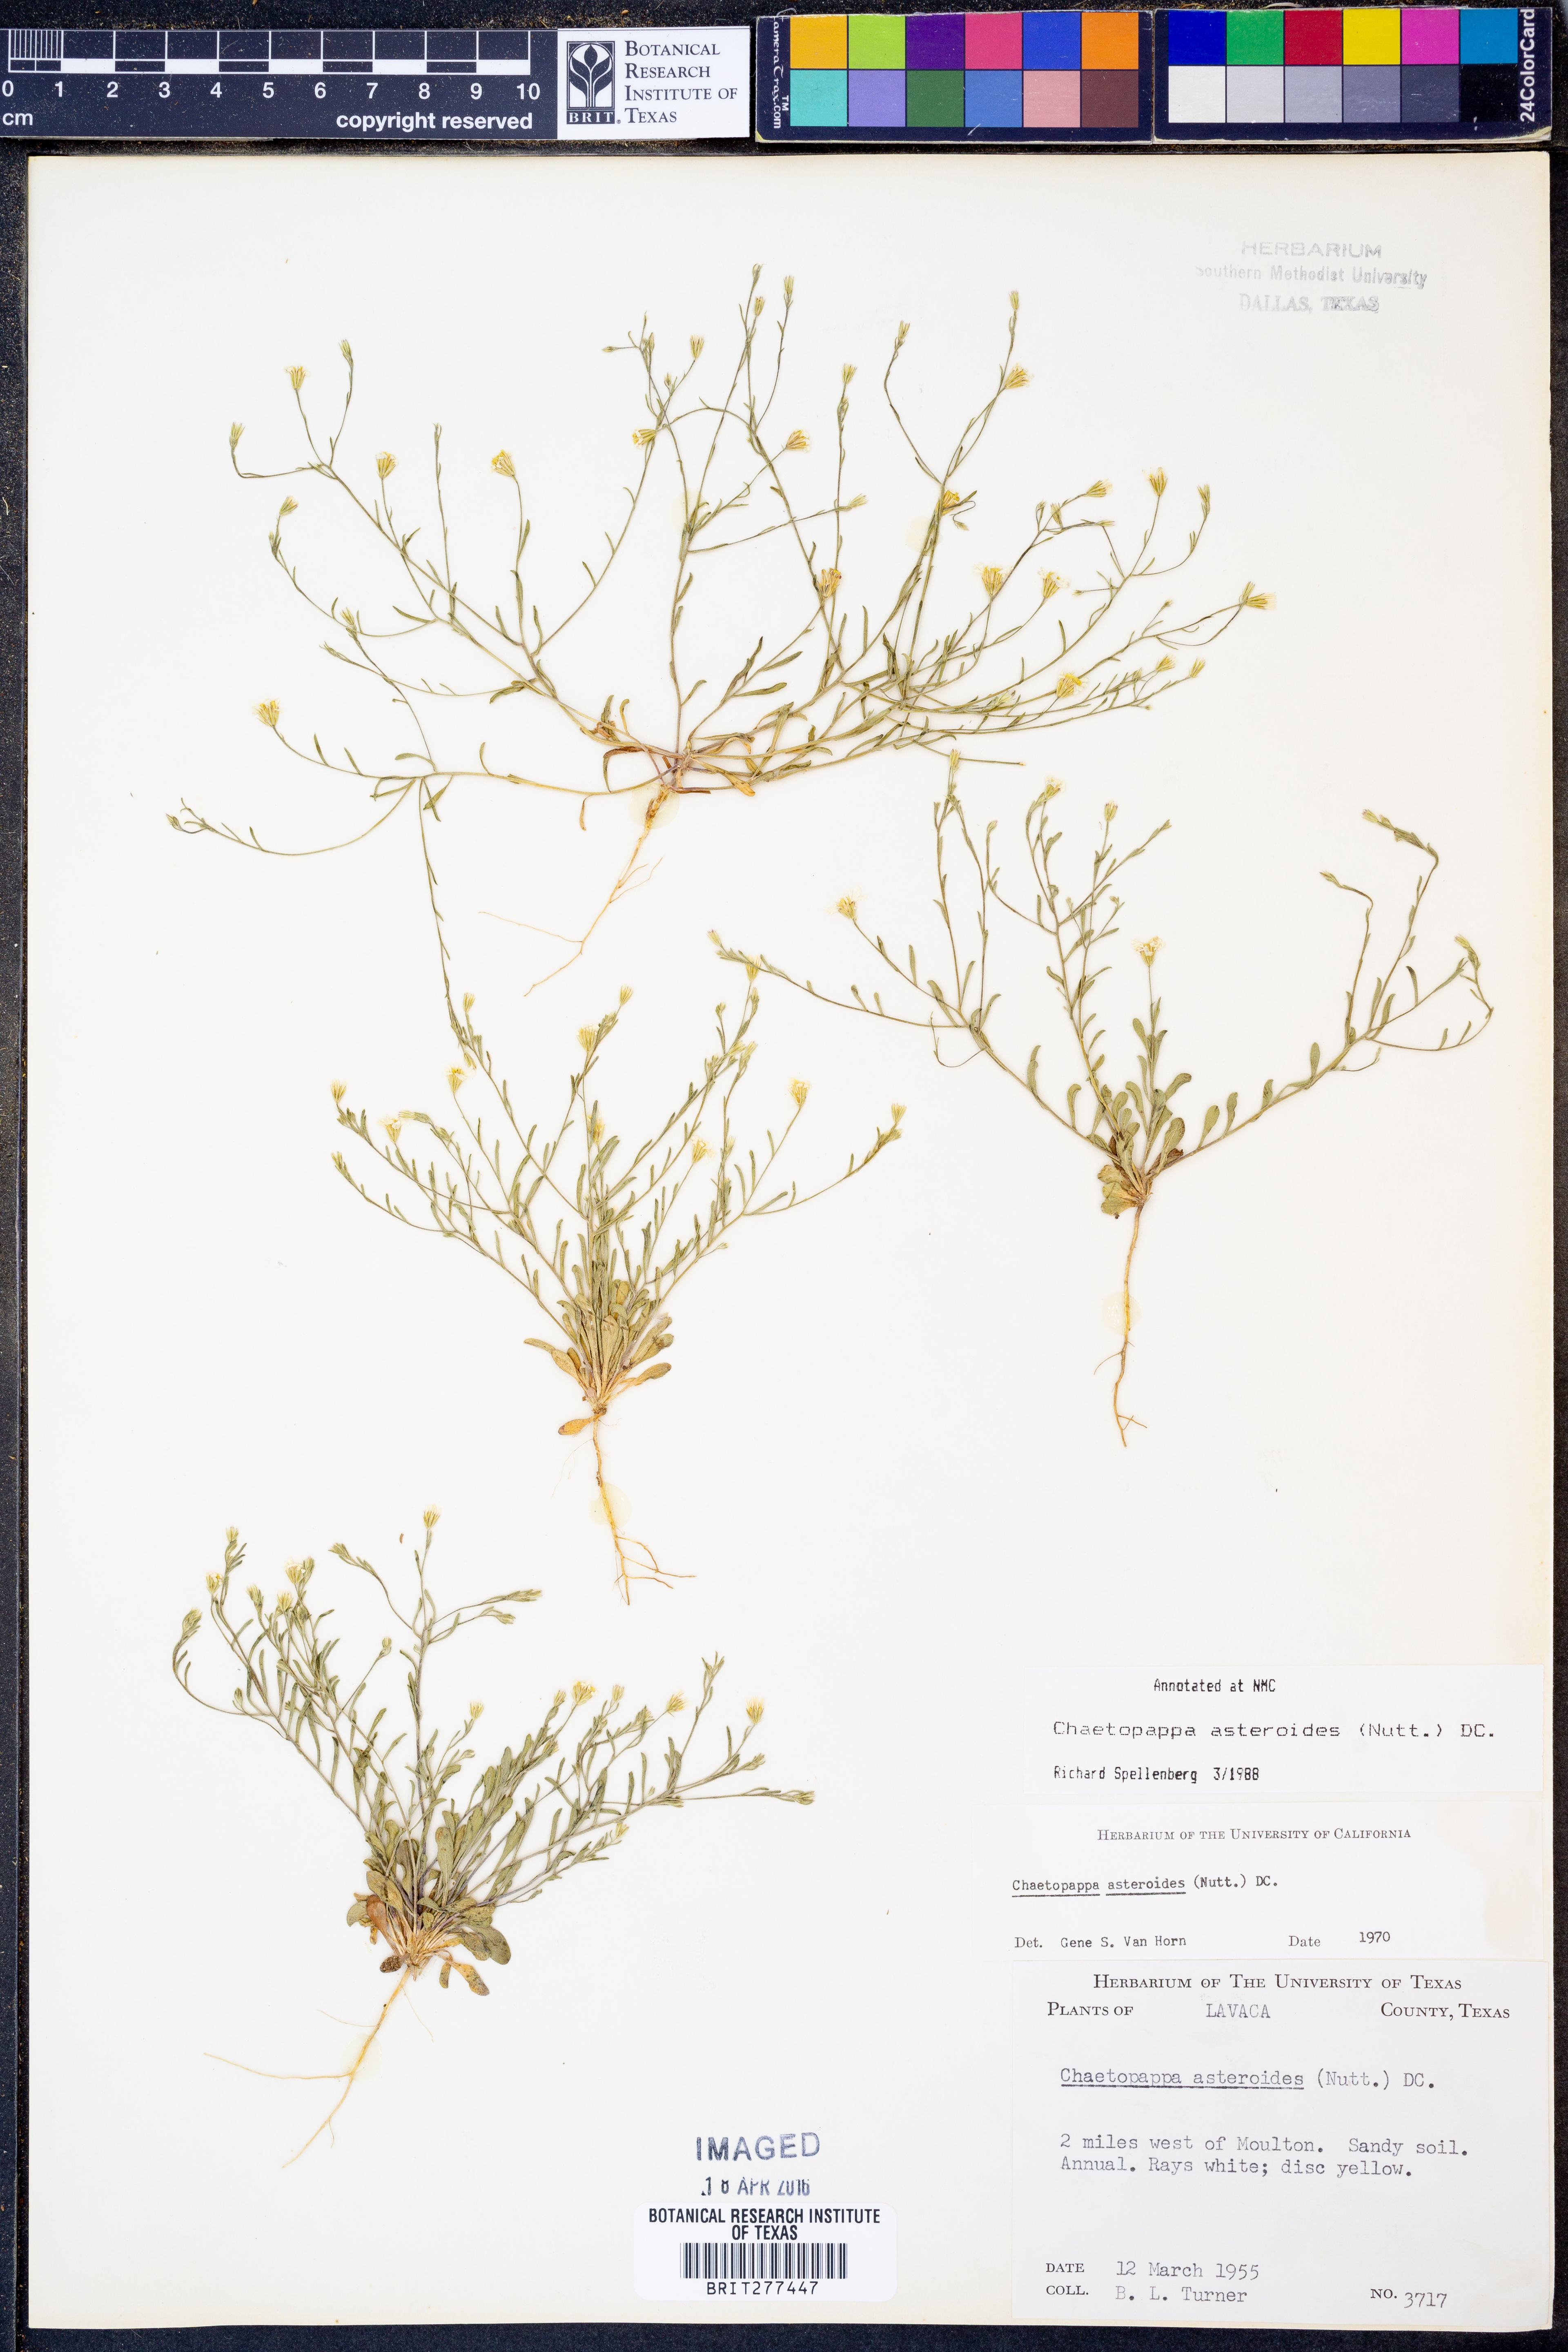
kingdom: Plantae
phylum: Tracheophyta
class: Magnoliopsida
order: Asterales
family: Asteraceae
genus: Chaetopappa
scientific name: Chaetopappa asteroides
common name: Tiny lazy daisy
